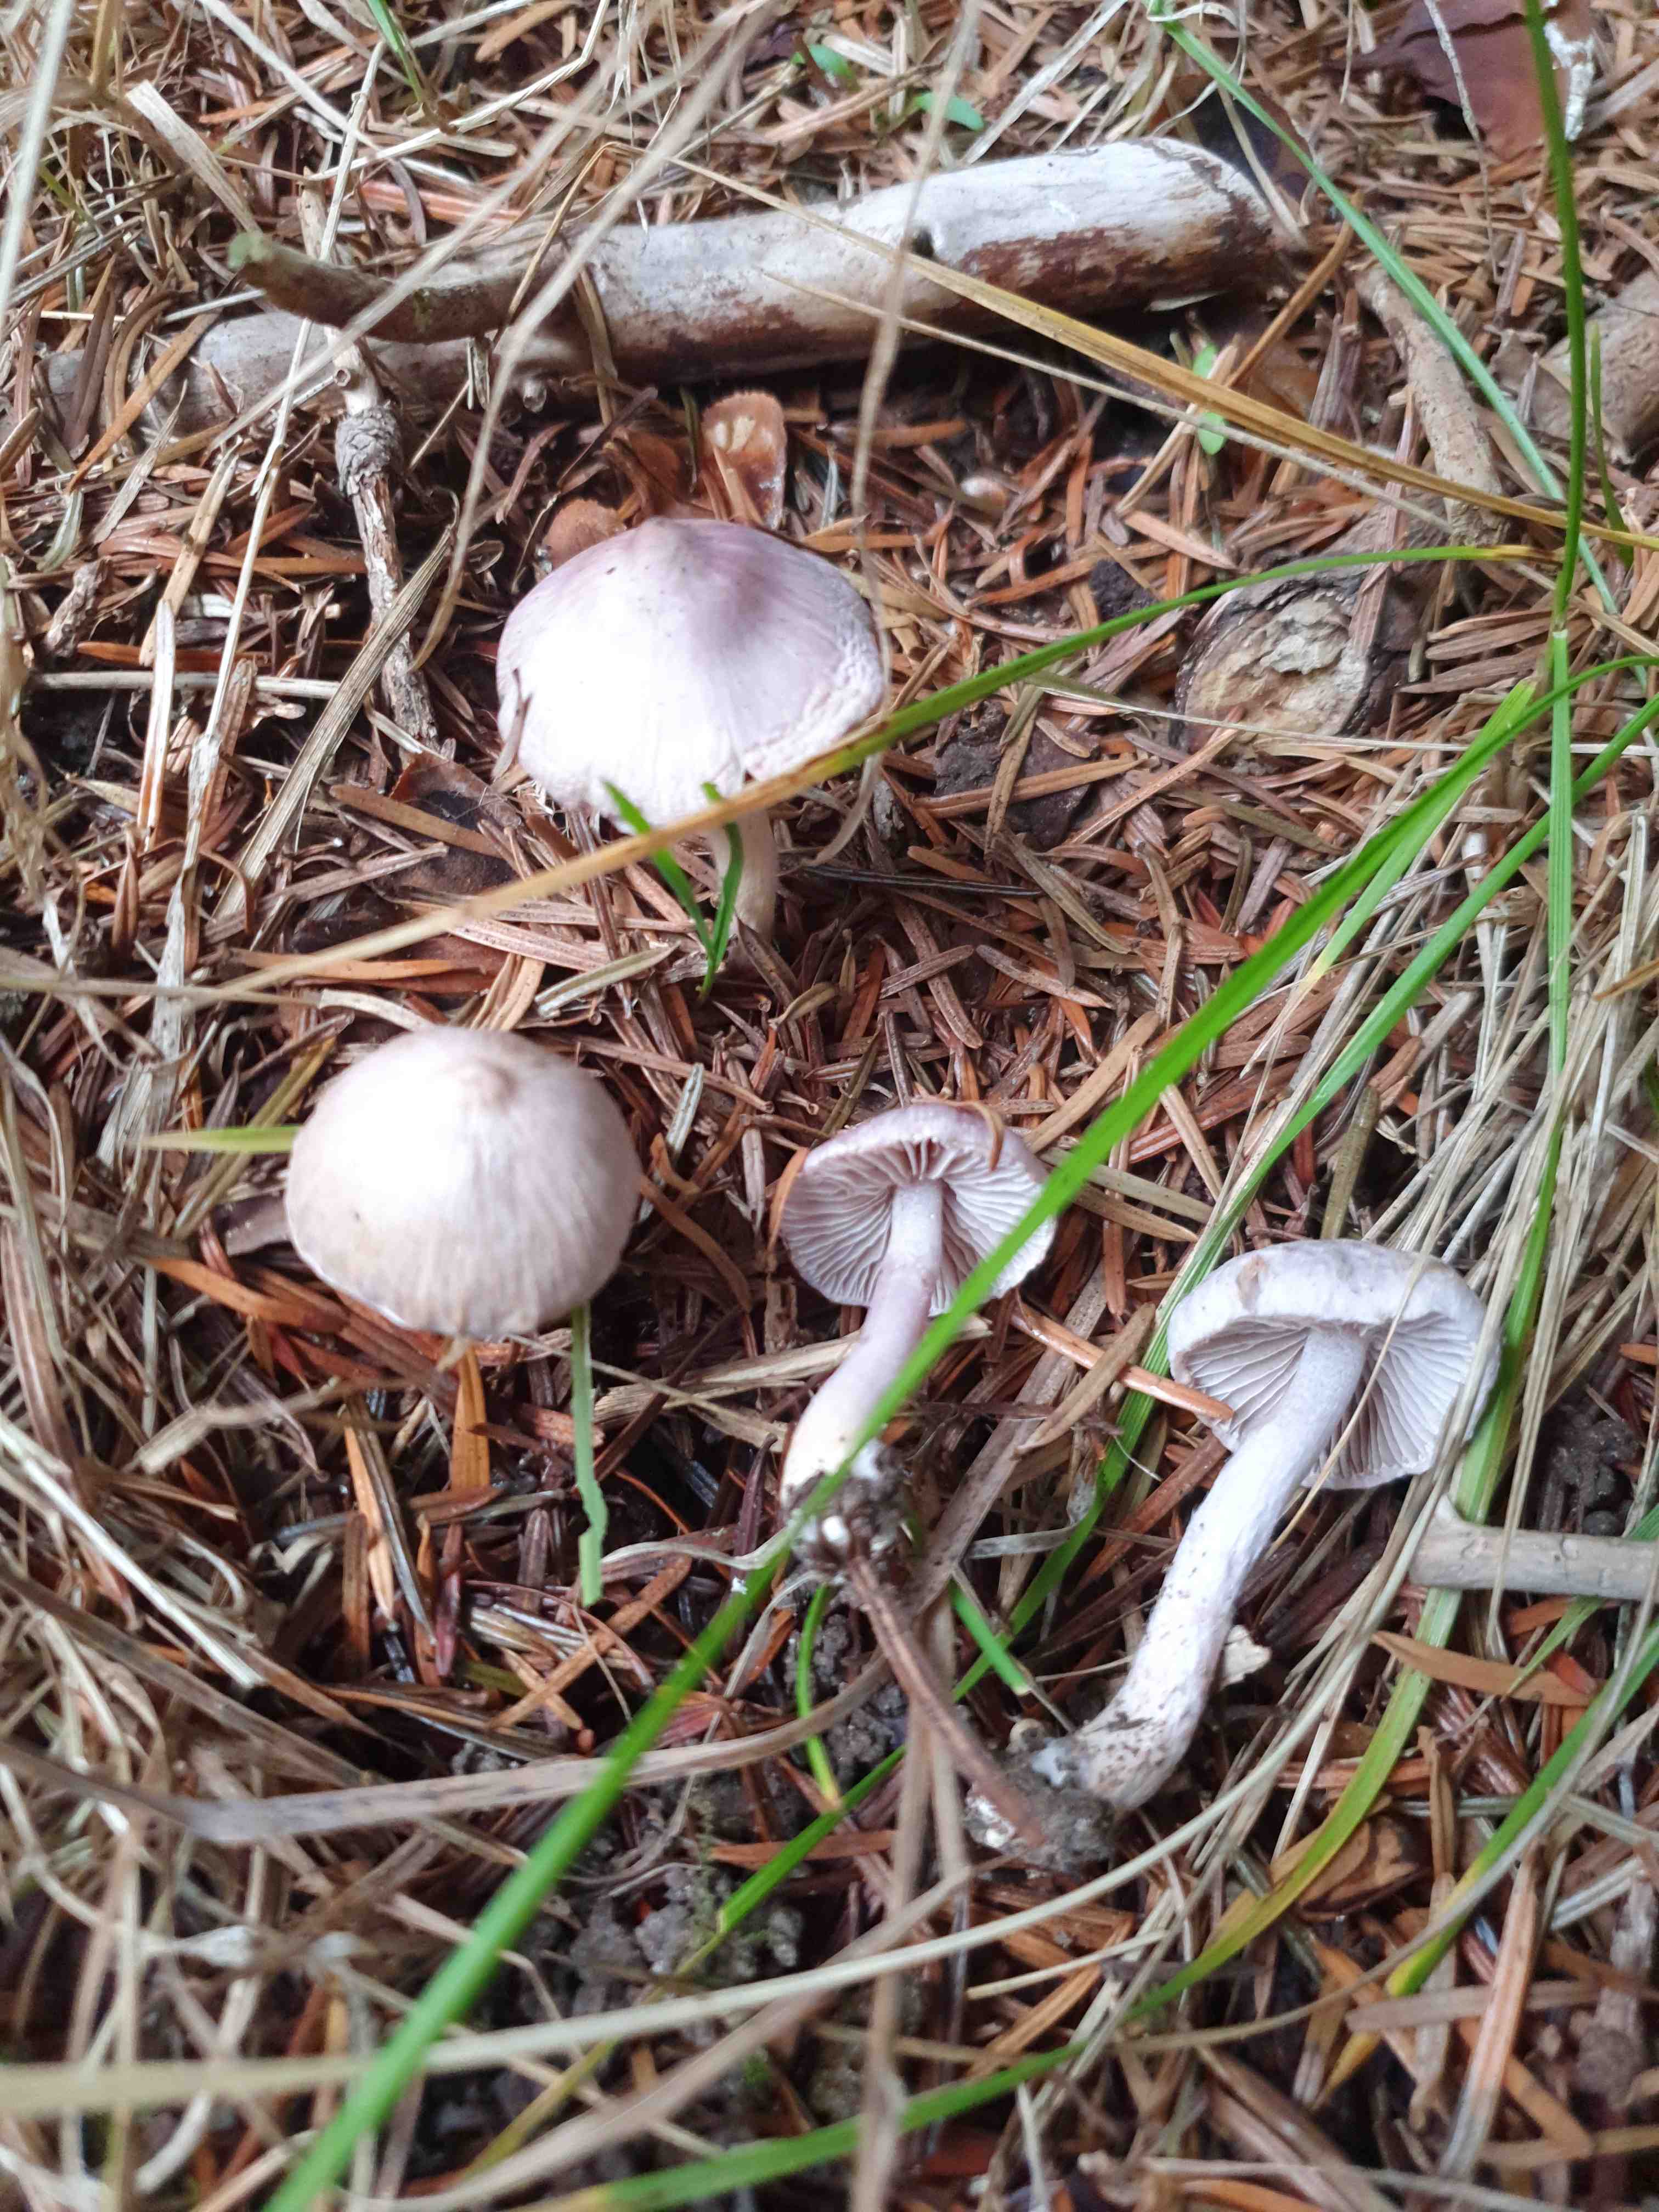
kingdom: Fungi
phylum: Basidiomycota
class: Agaricomycetes
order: Agaricales
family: Inocybaceae
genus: Inocybe
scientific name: Inocybe geophylla
